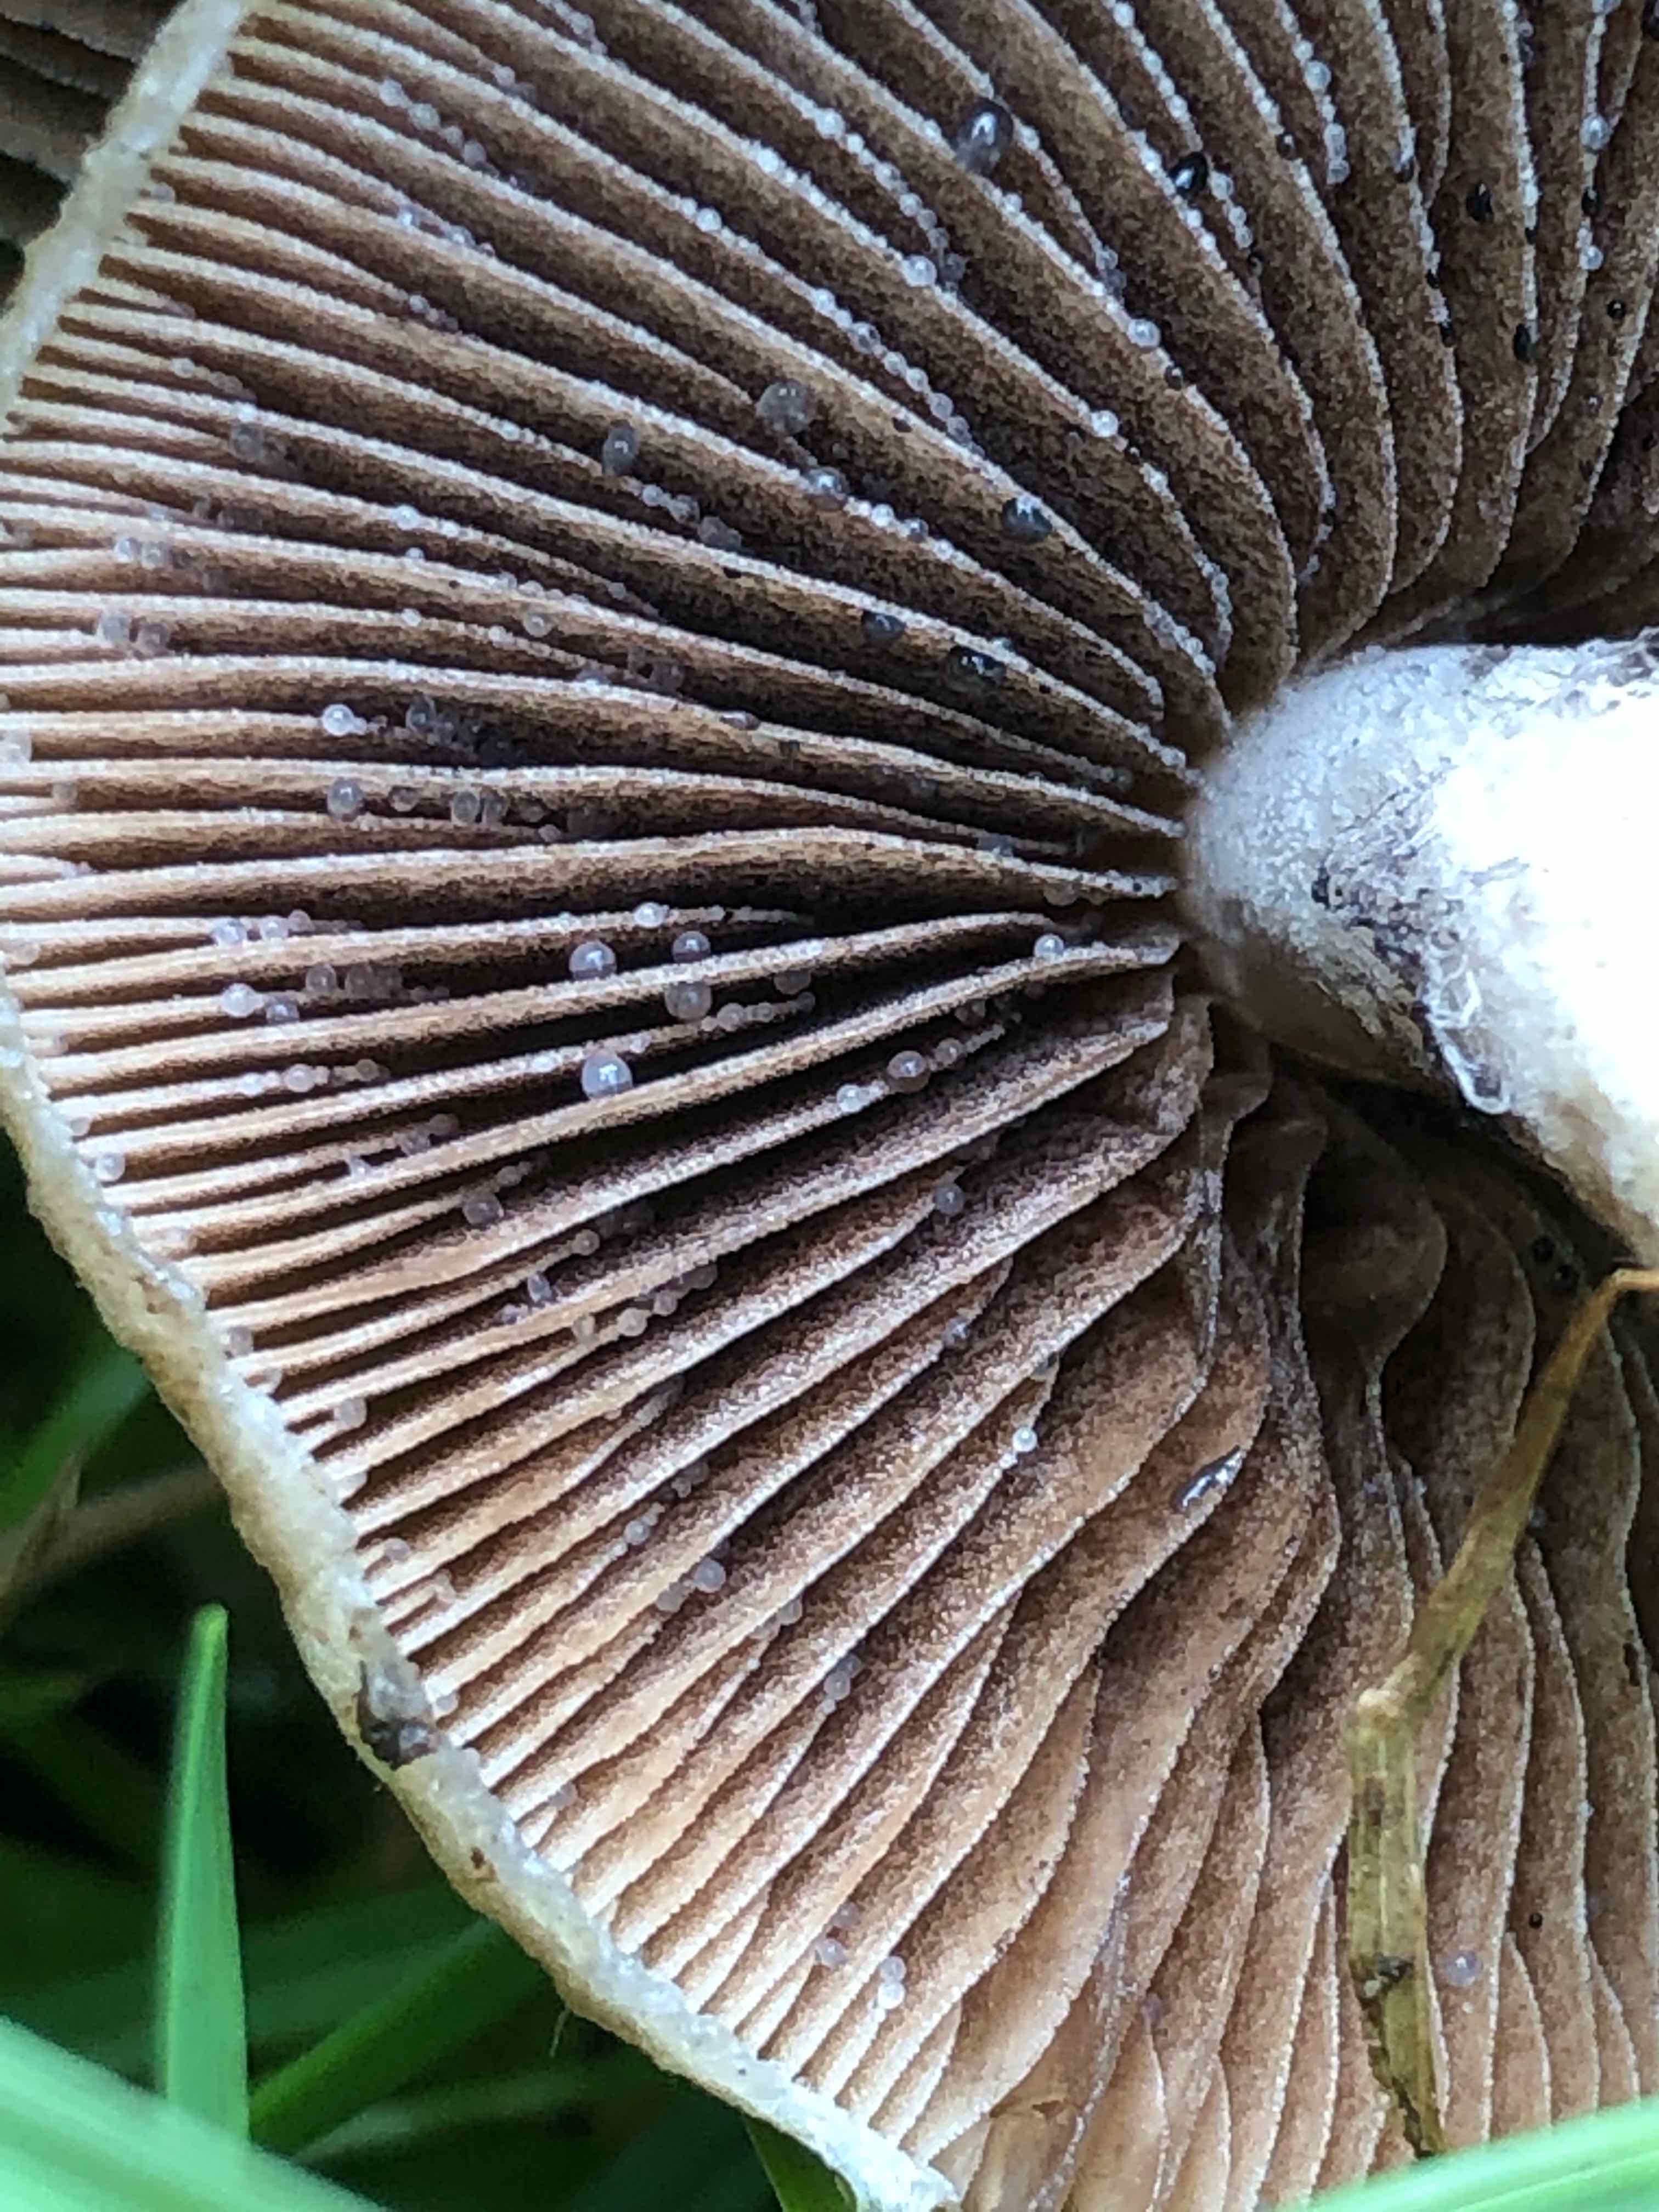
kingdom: Fungi
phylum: Basidiomycota
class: Agaricomycetes
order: Agaricales
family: Psathyrellaceae
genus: Lacrymaria
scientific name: Lacrymaria lacrymabunda
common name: grædende mørkhat
